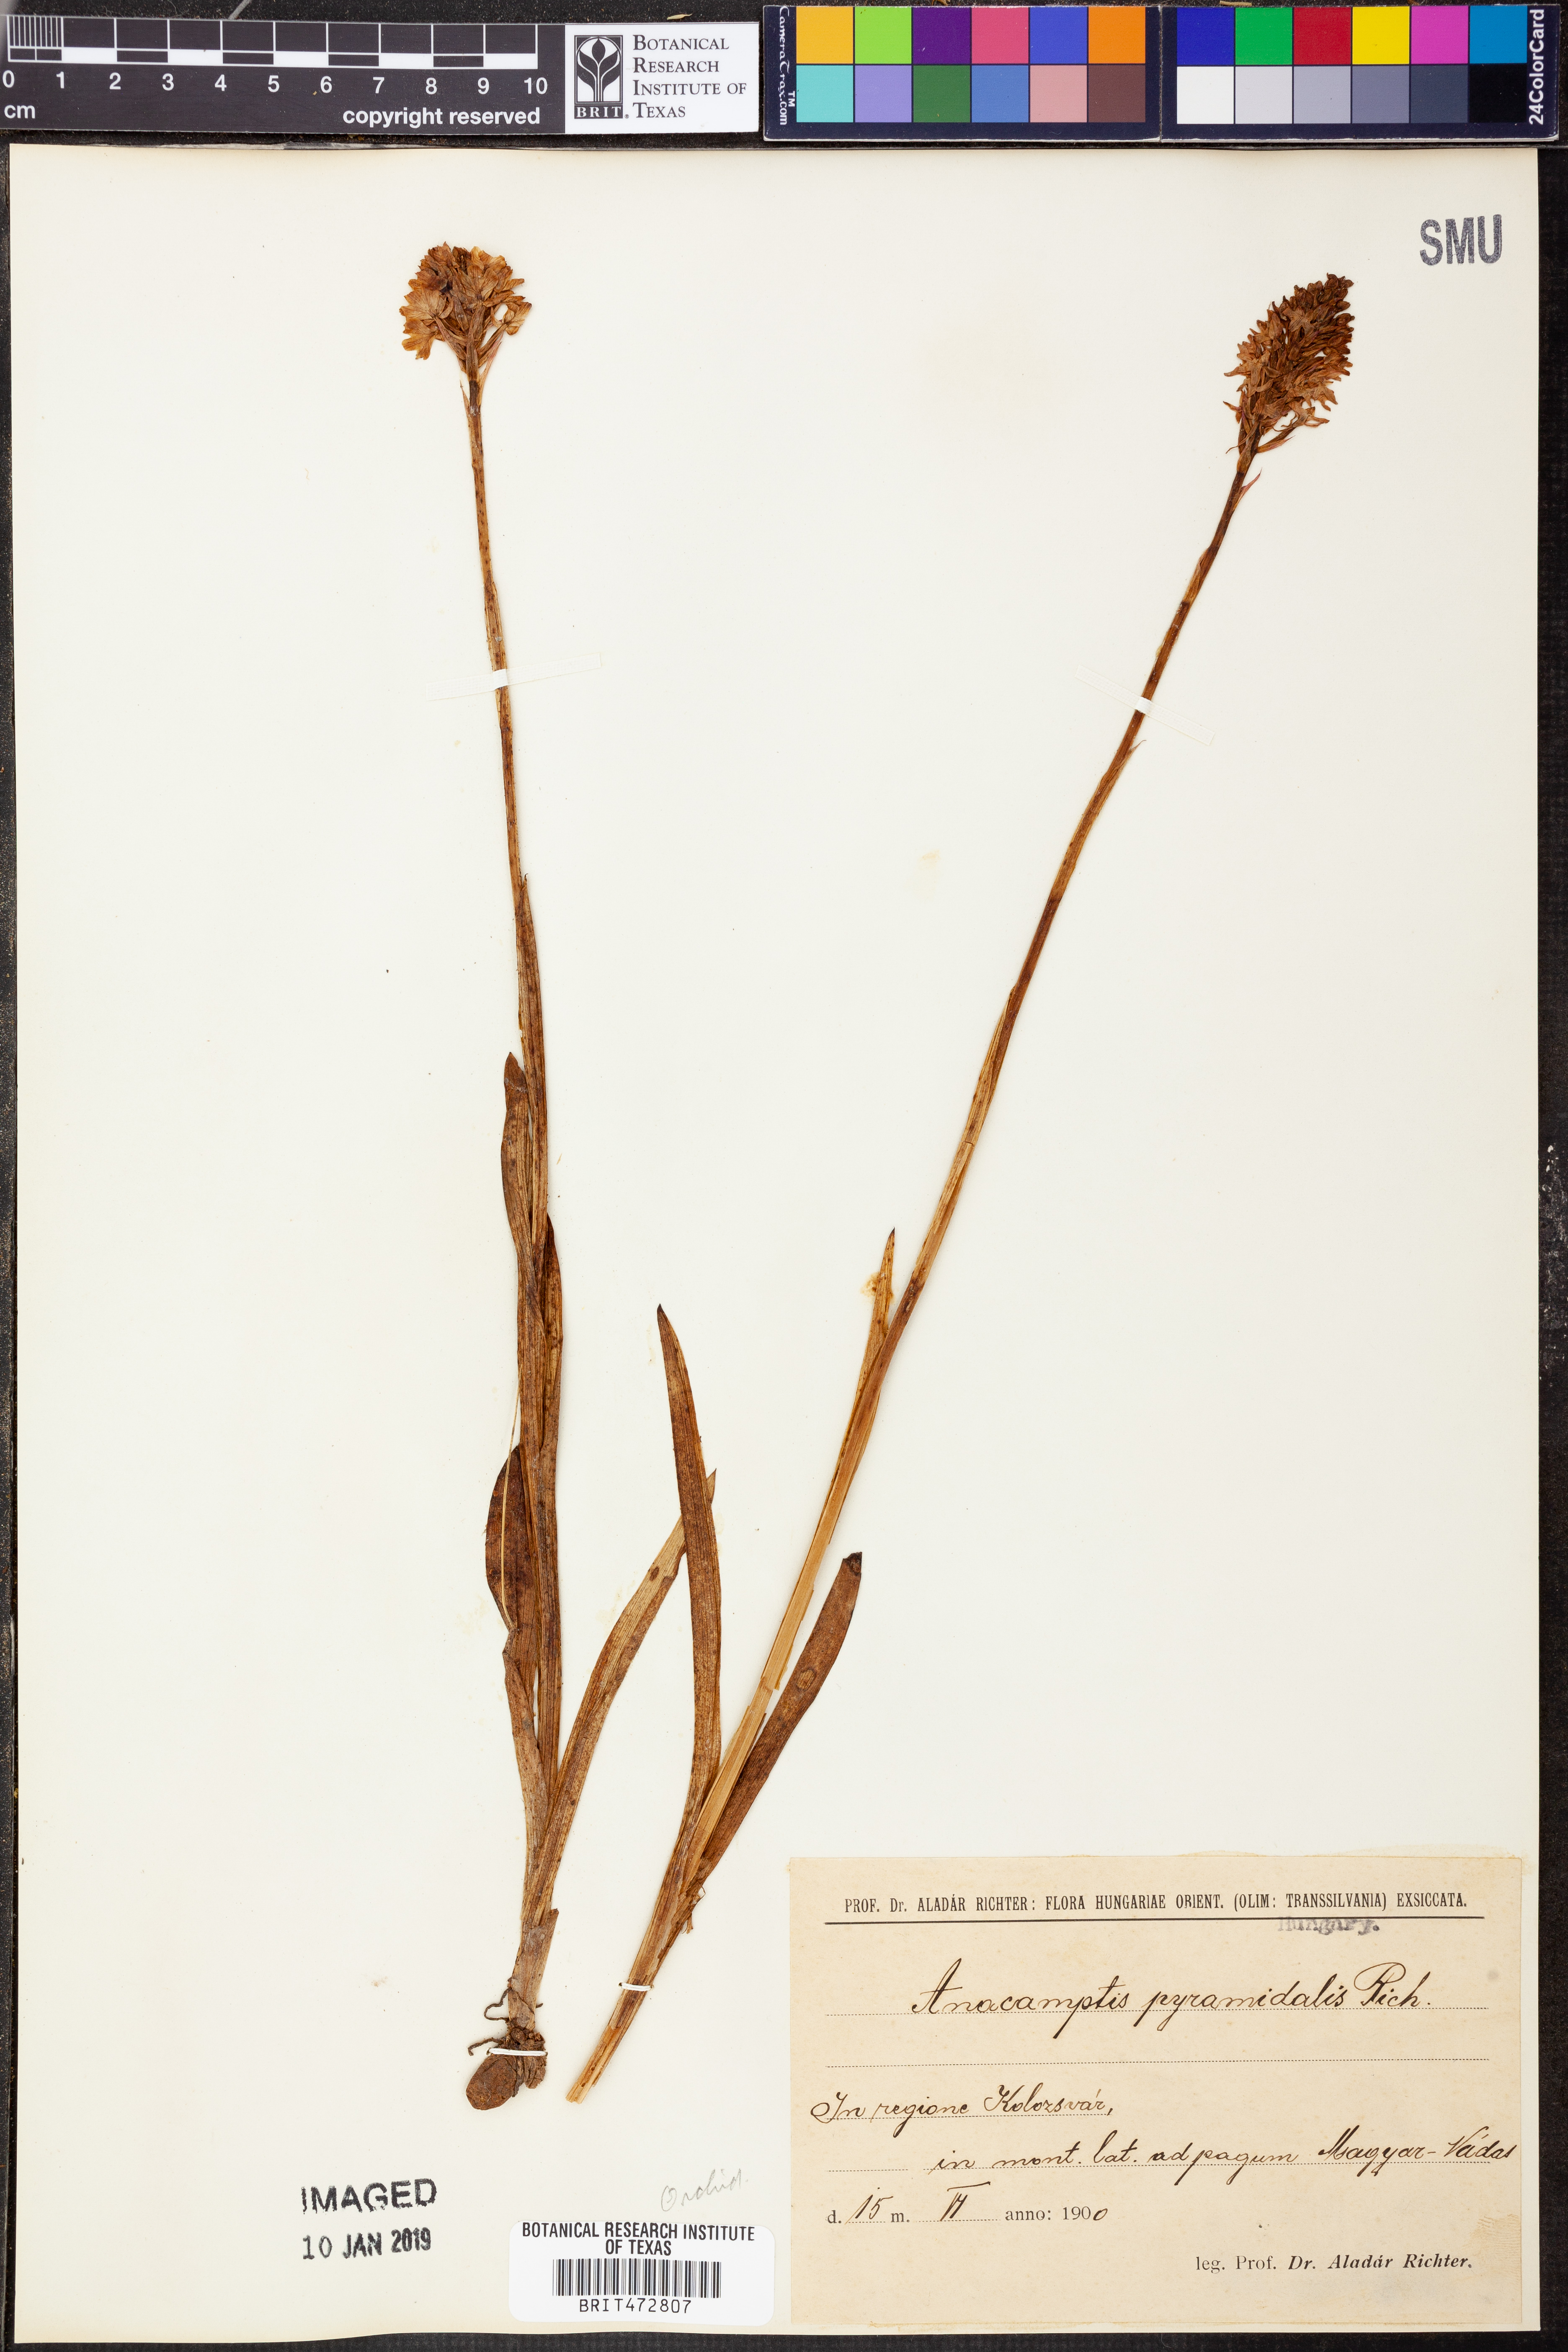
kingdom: Plantae
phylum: Tracheophyta
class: Liliopsida
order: Asparagales
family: Orchidaceae
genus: Anacamptis
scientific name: Anacamptis pyramidalis
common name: Pyramidal orchid
